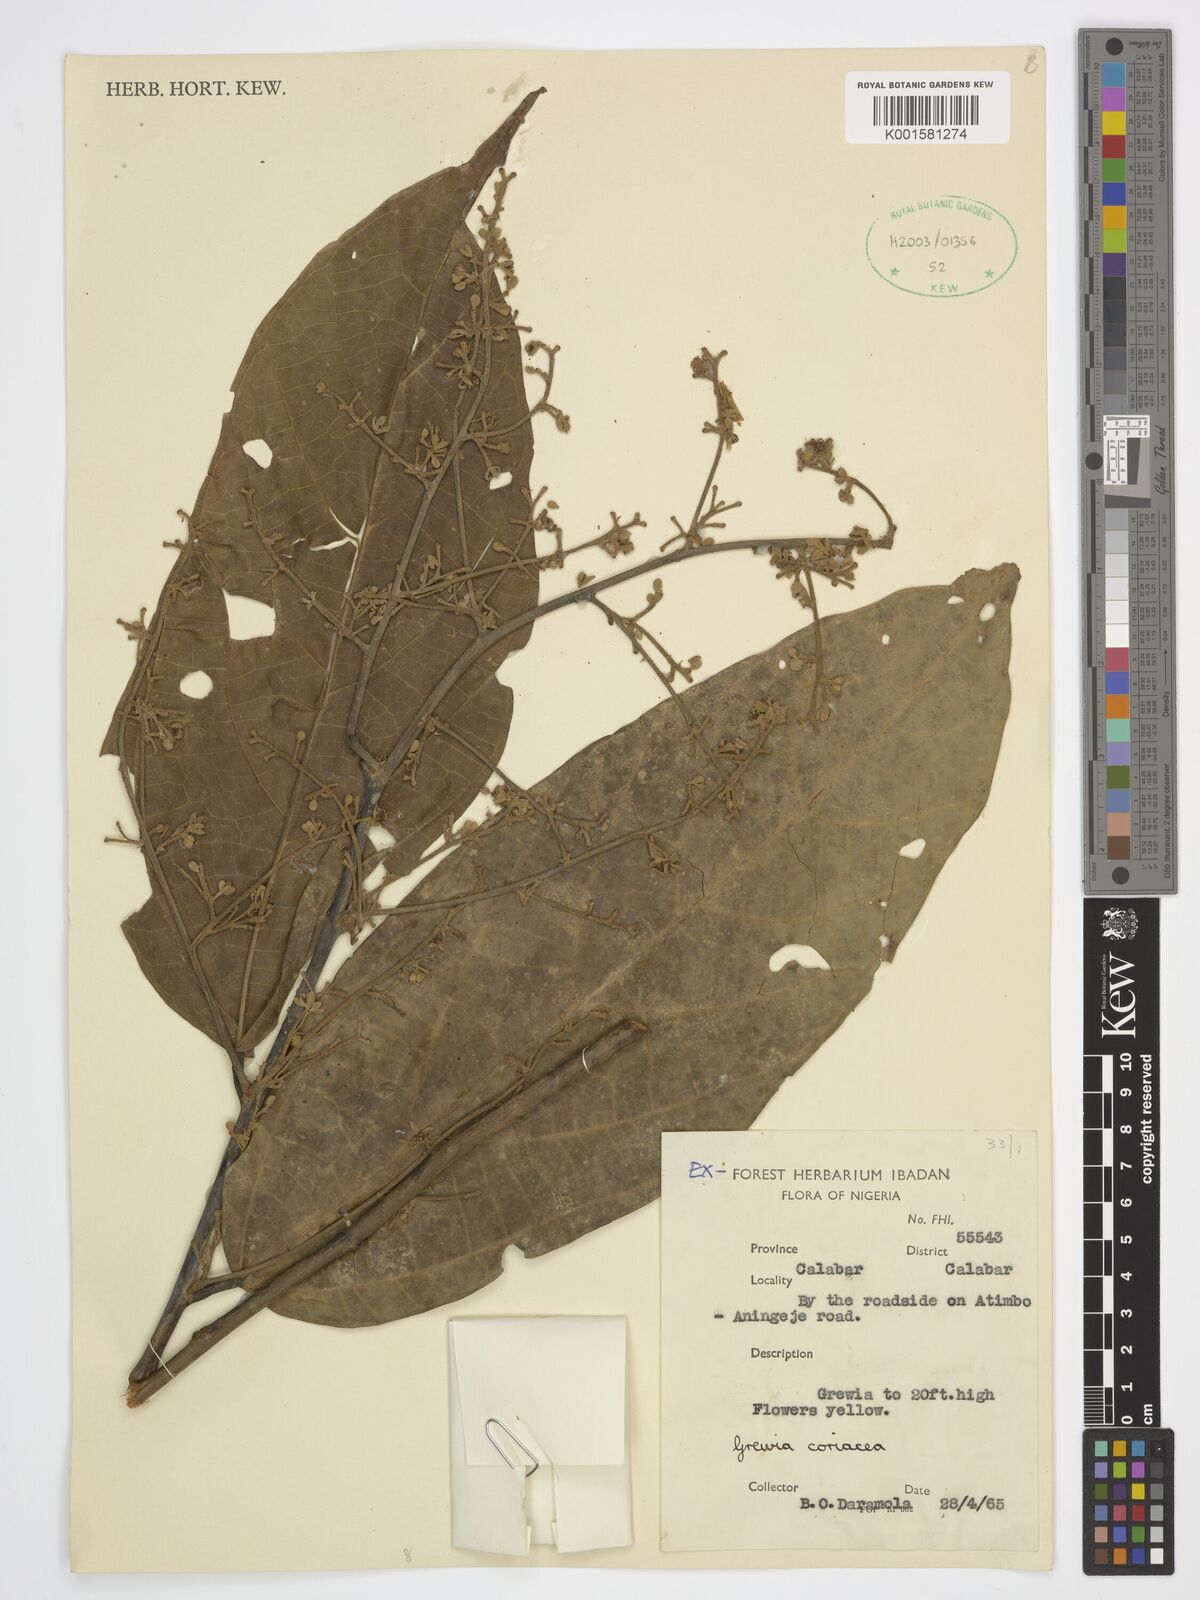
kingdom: Plantae
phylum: Tracheophyta
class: Magnoliopsida
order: Malvales
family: Malvaceae
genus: Microcos
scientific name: Microcos coriacea
